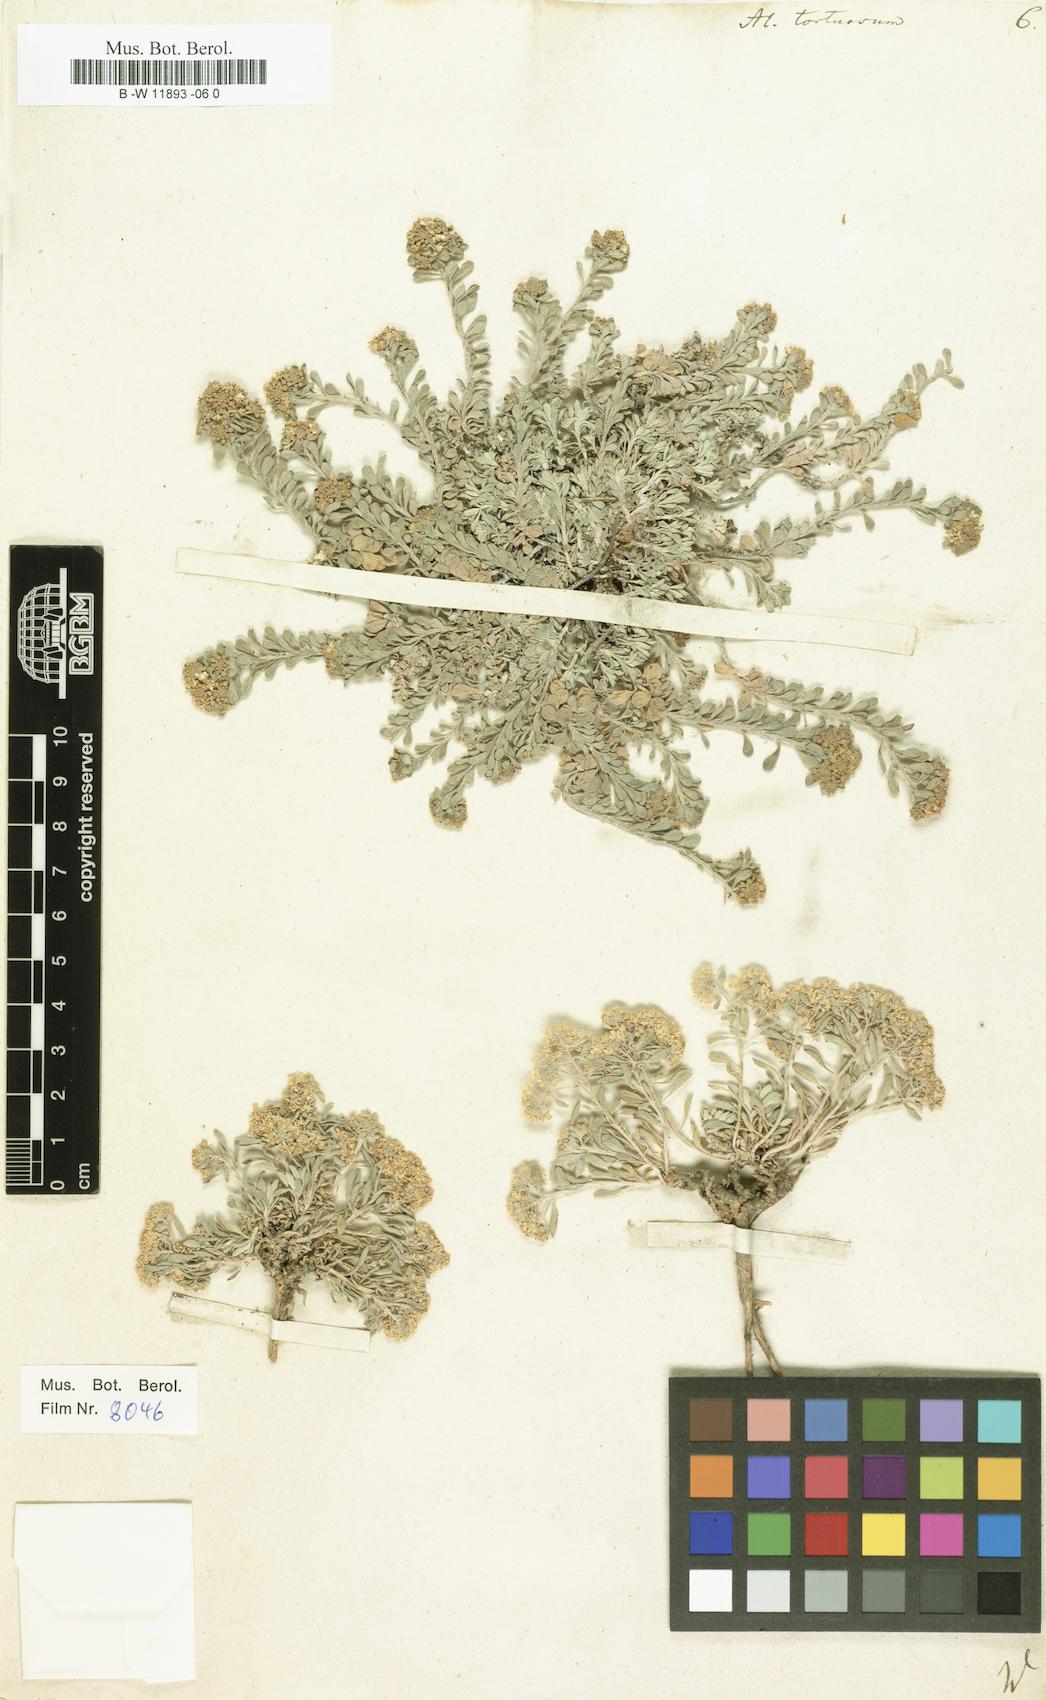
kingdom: Plantae
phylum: Tracheophyta
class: Magnoliopsida
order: Brassicales
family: Brassicaceae
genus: Odontarrhena
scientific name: Odontarrhena tortuosa
